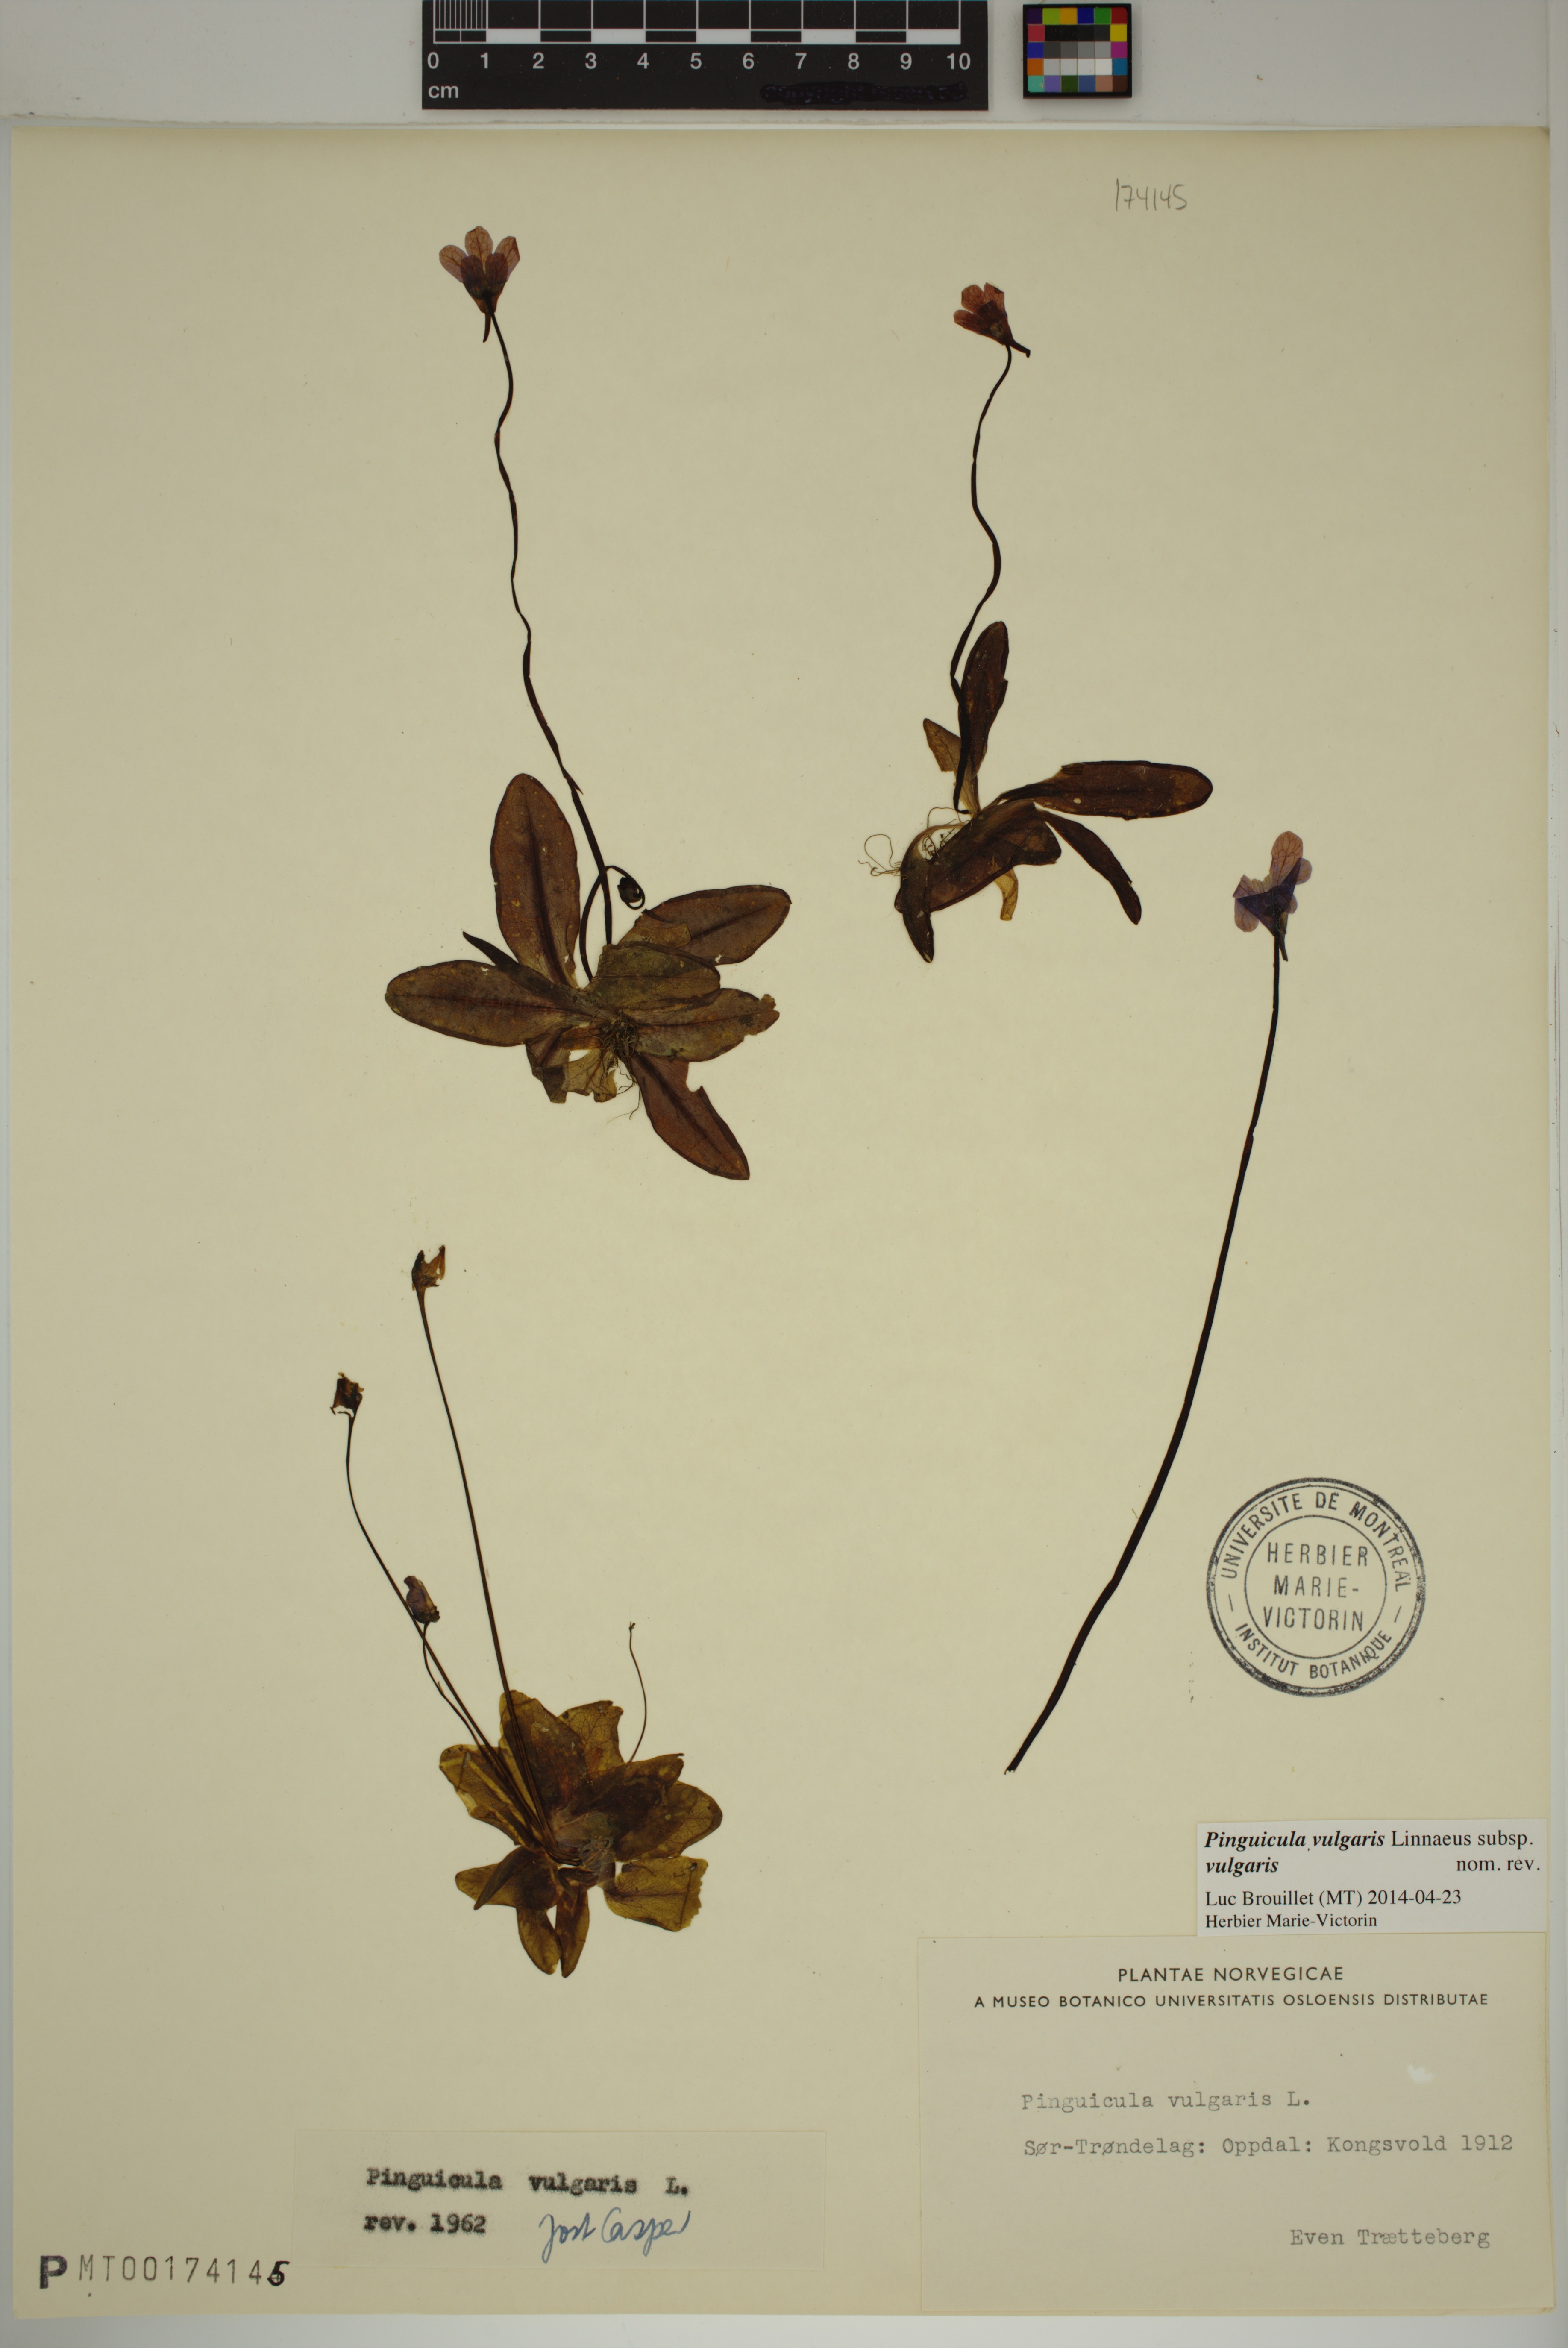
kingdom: Plantae
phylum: Tracheophyta
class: Magnoliopsida
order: Lamiales
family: Lentibulariaceae
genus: Pinguicula
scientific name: Pinguicula vulgaris
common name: Common butterwort
